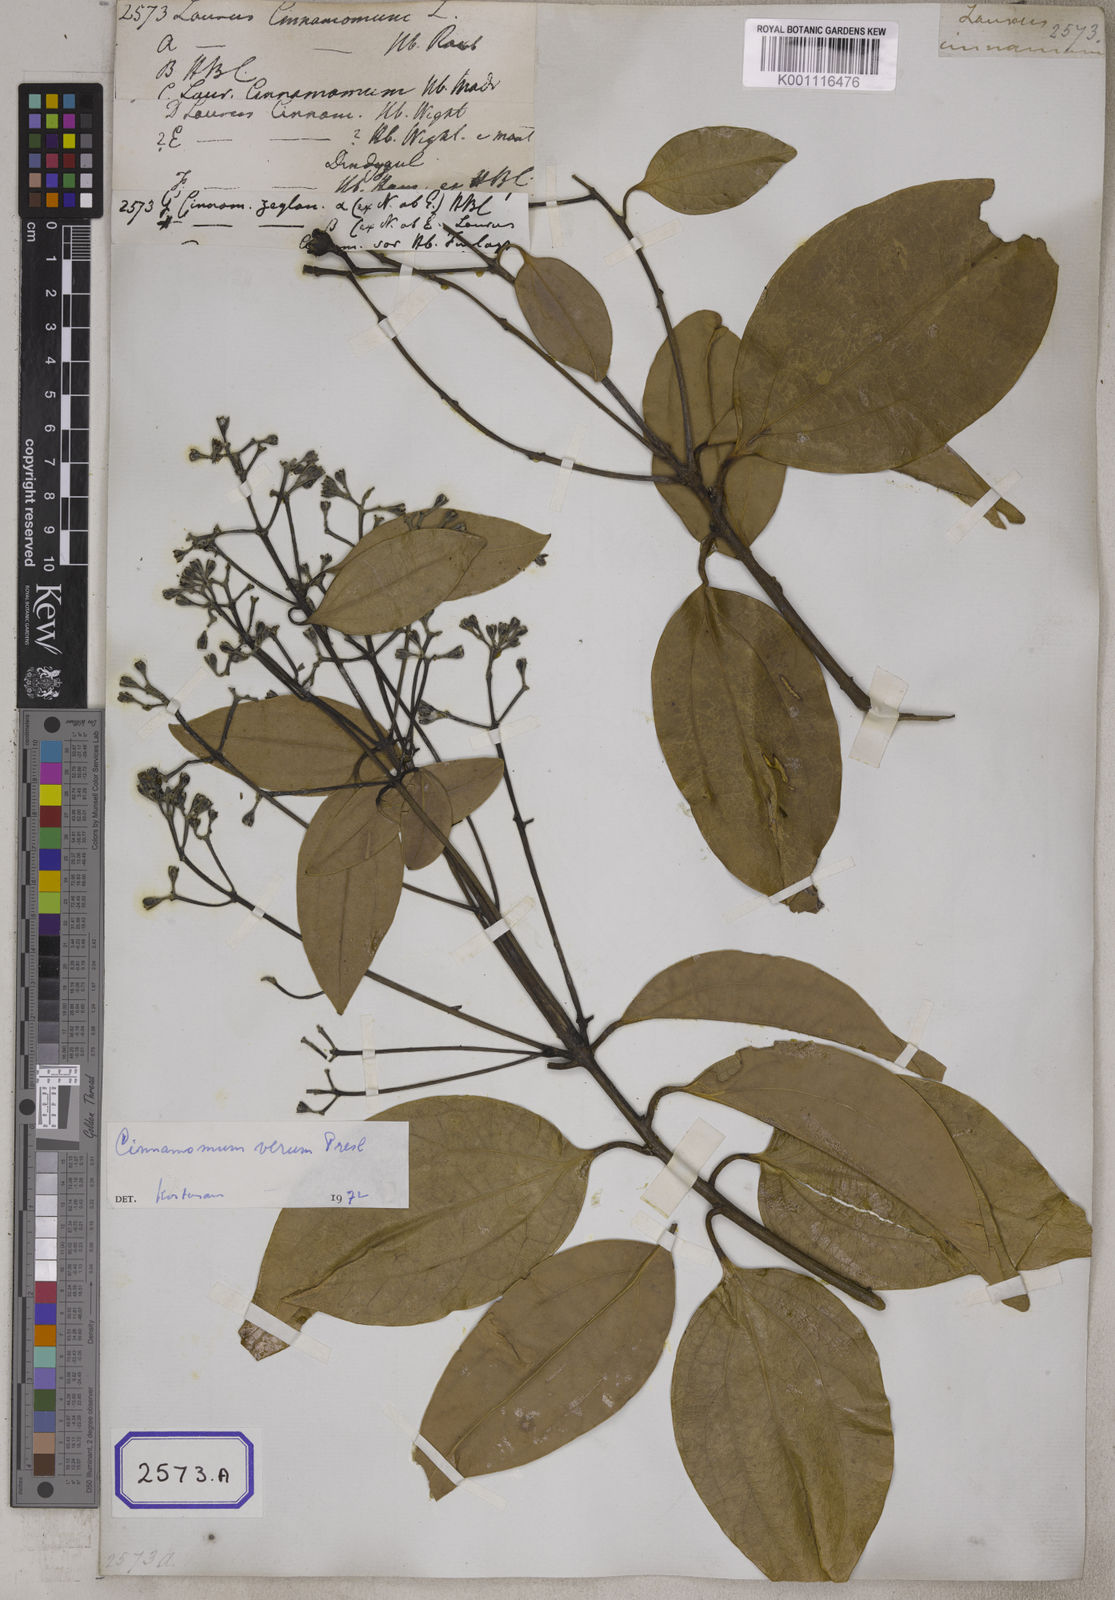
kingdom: Plantae
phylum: Tracheophyta
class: Magnoliopsida
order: Laurales
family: Lauraceae
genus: Cinnamomum
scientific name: Cinnamomum verum
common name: Cinnamon
